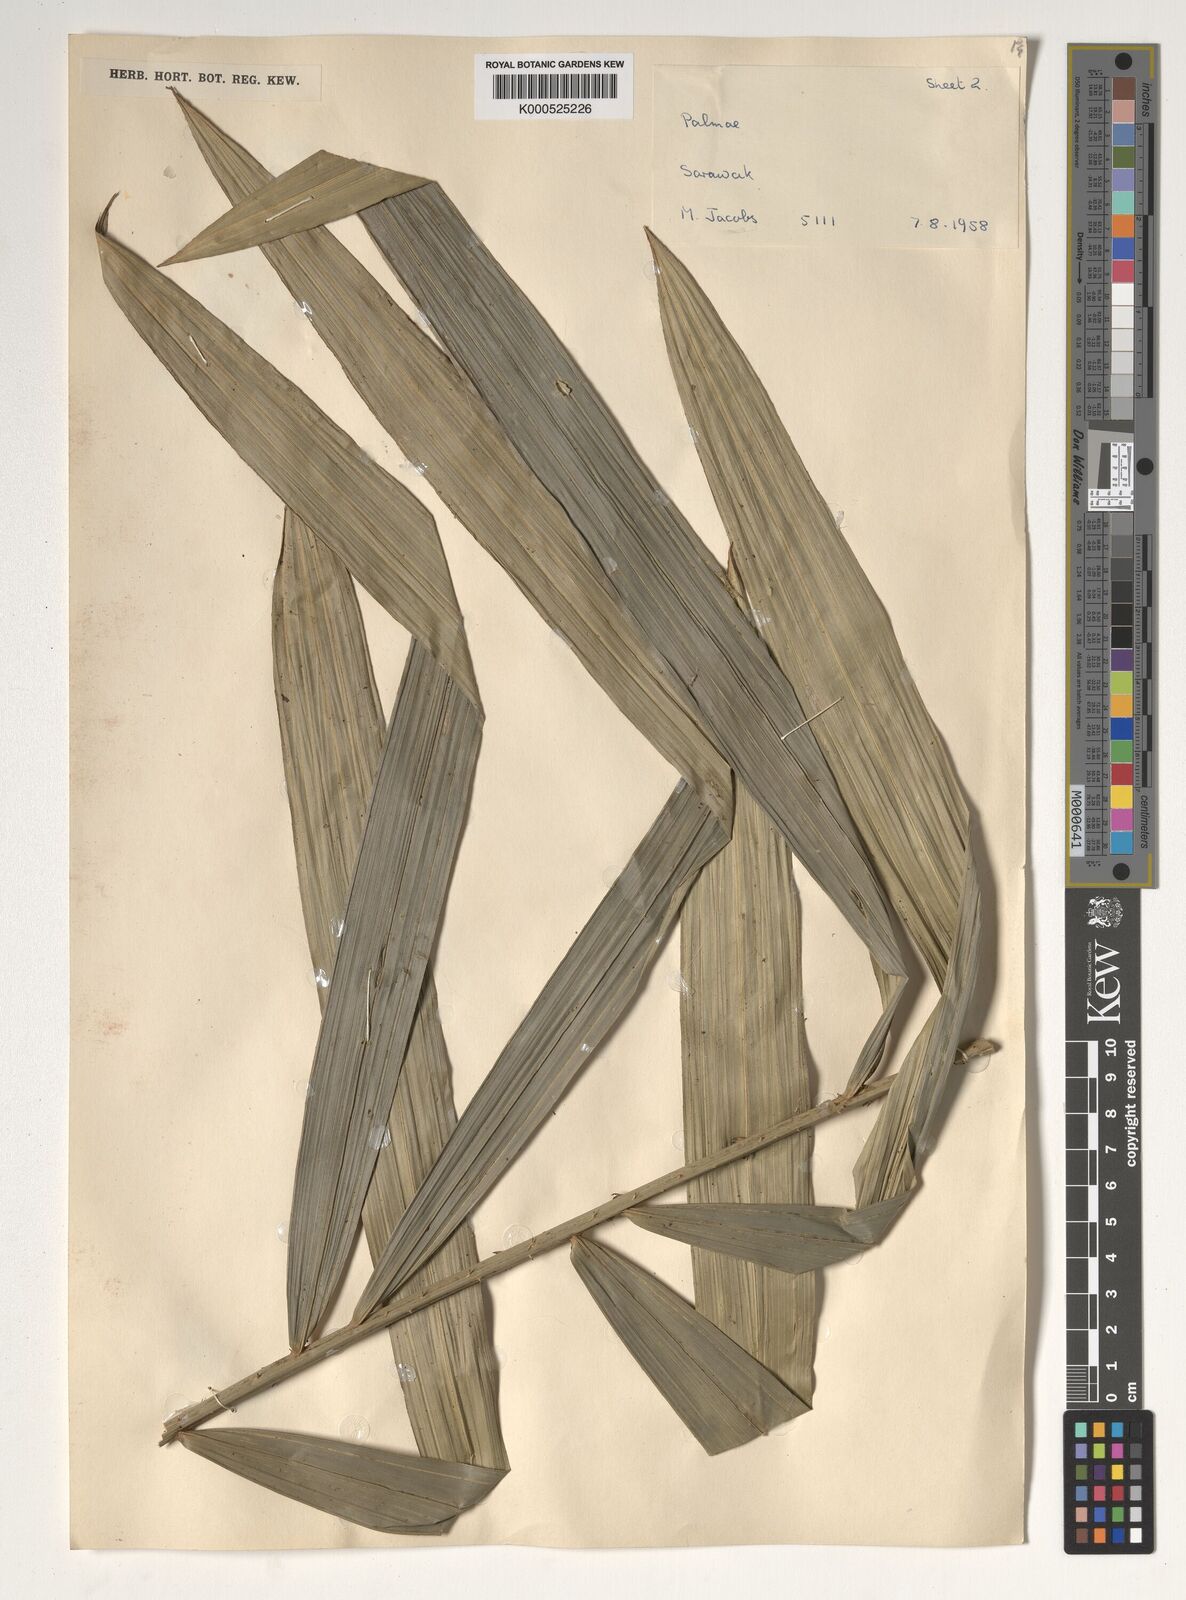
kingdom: Plantae
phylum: Tracheophyta
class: Liliopsida
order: Arecales
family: Arecaceae
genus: Calamus
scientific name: Calamus gracilipes
